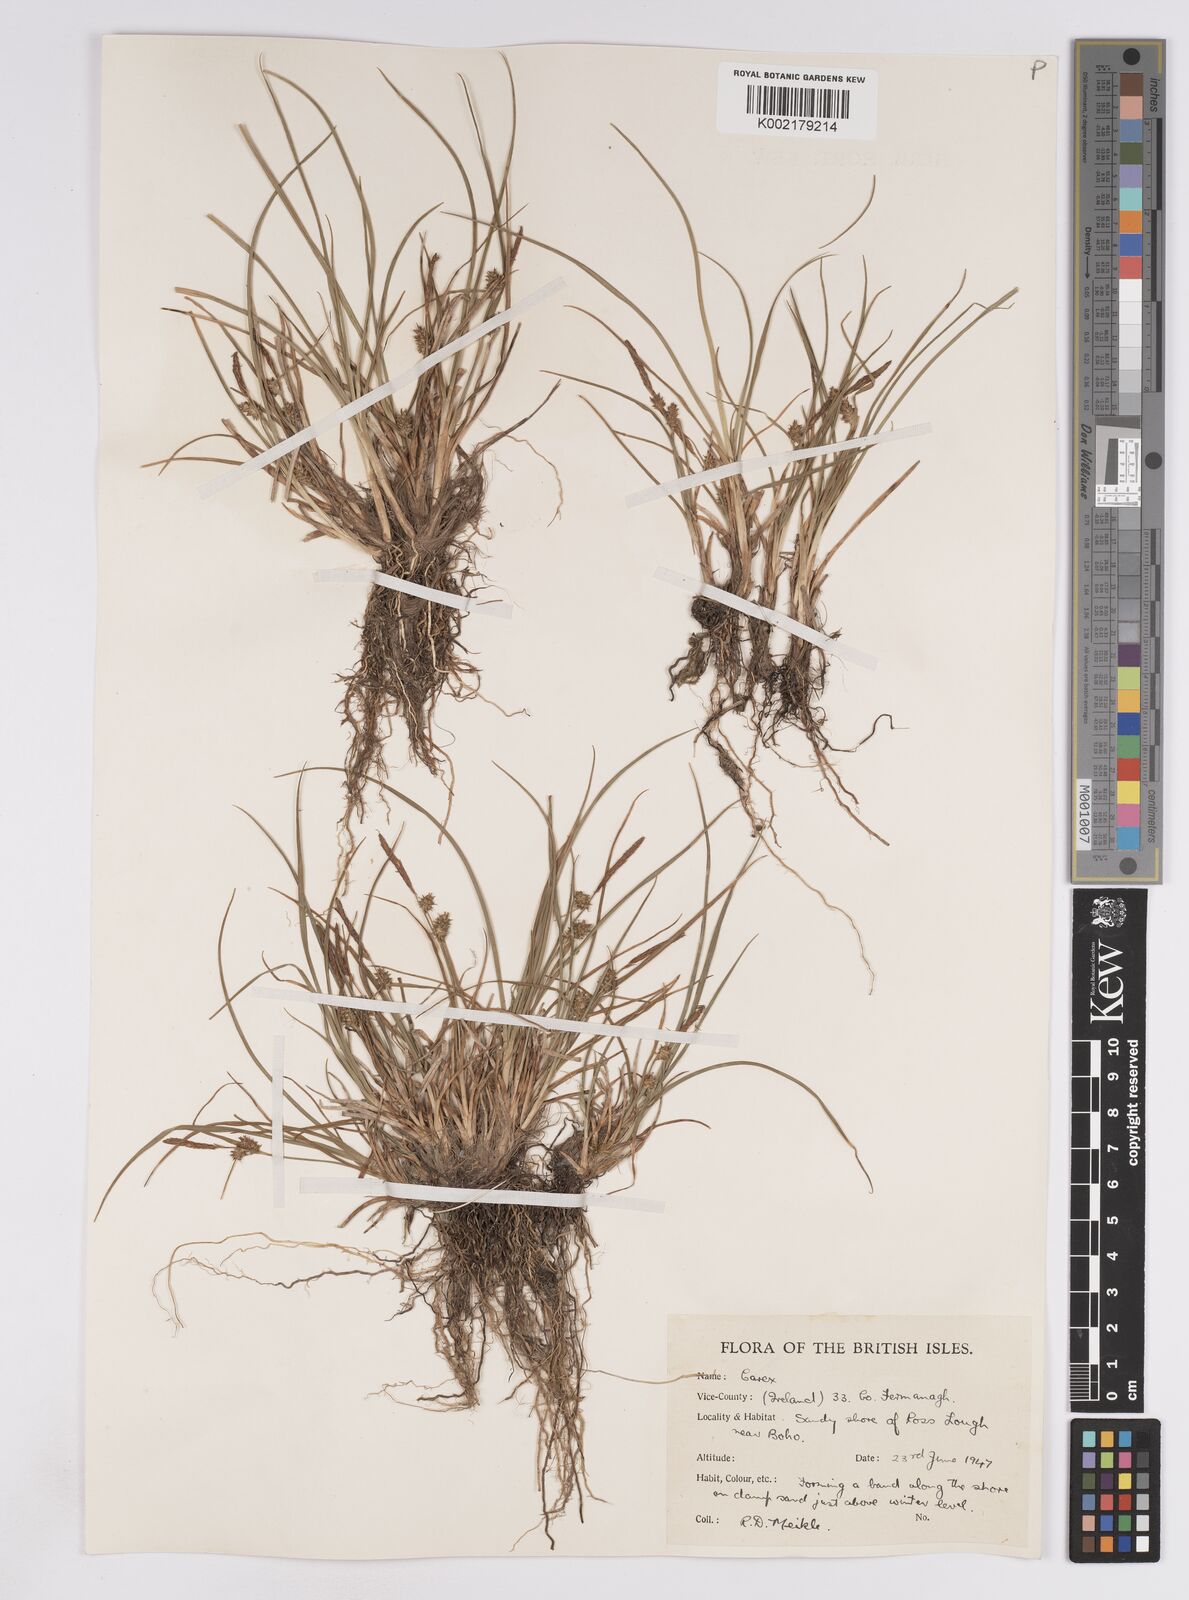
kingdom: Plantae
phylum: Tracheophyta
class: Liliopsida
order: Poales
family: Cyperaceae
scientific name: Cyperaceae
